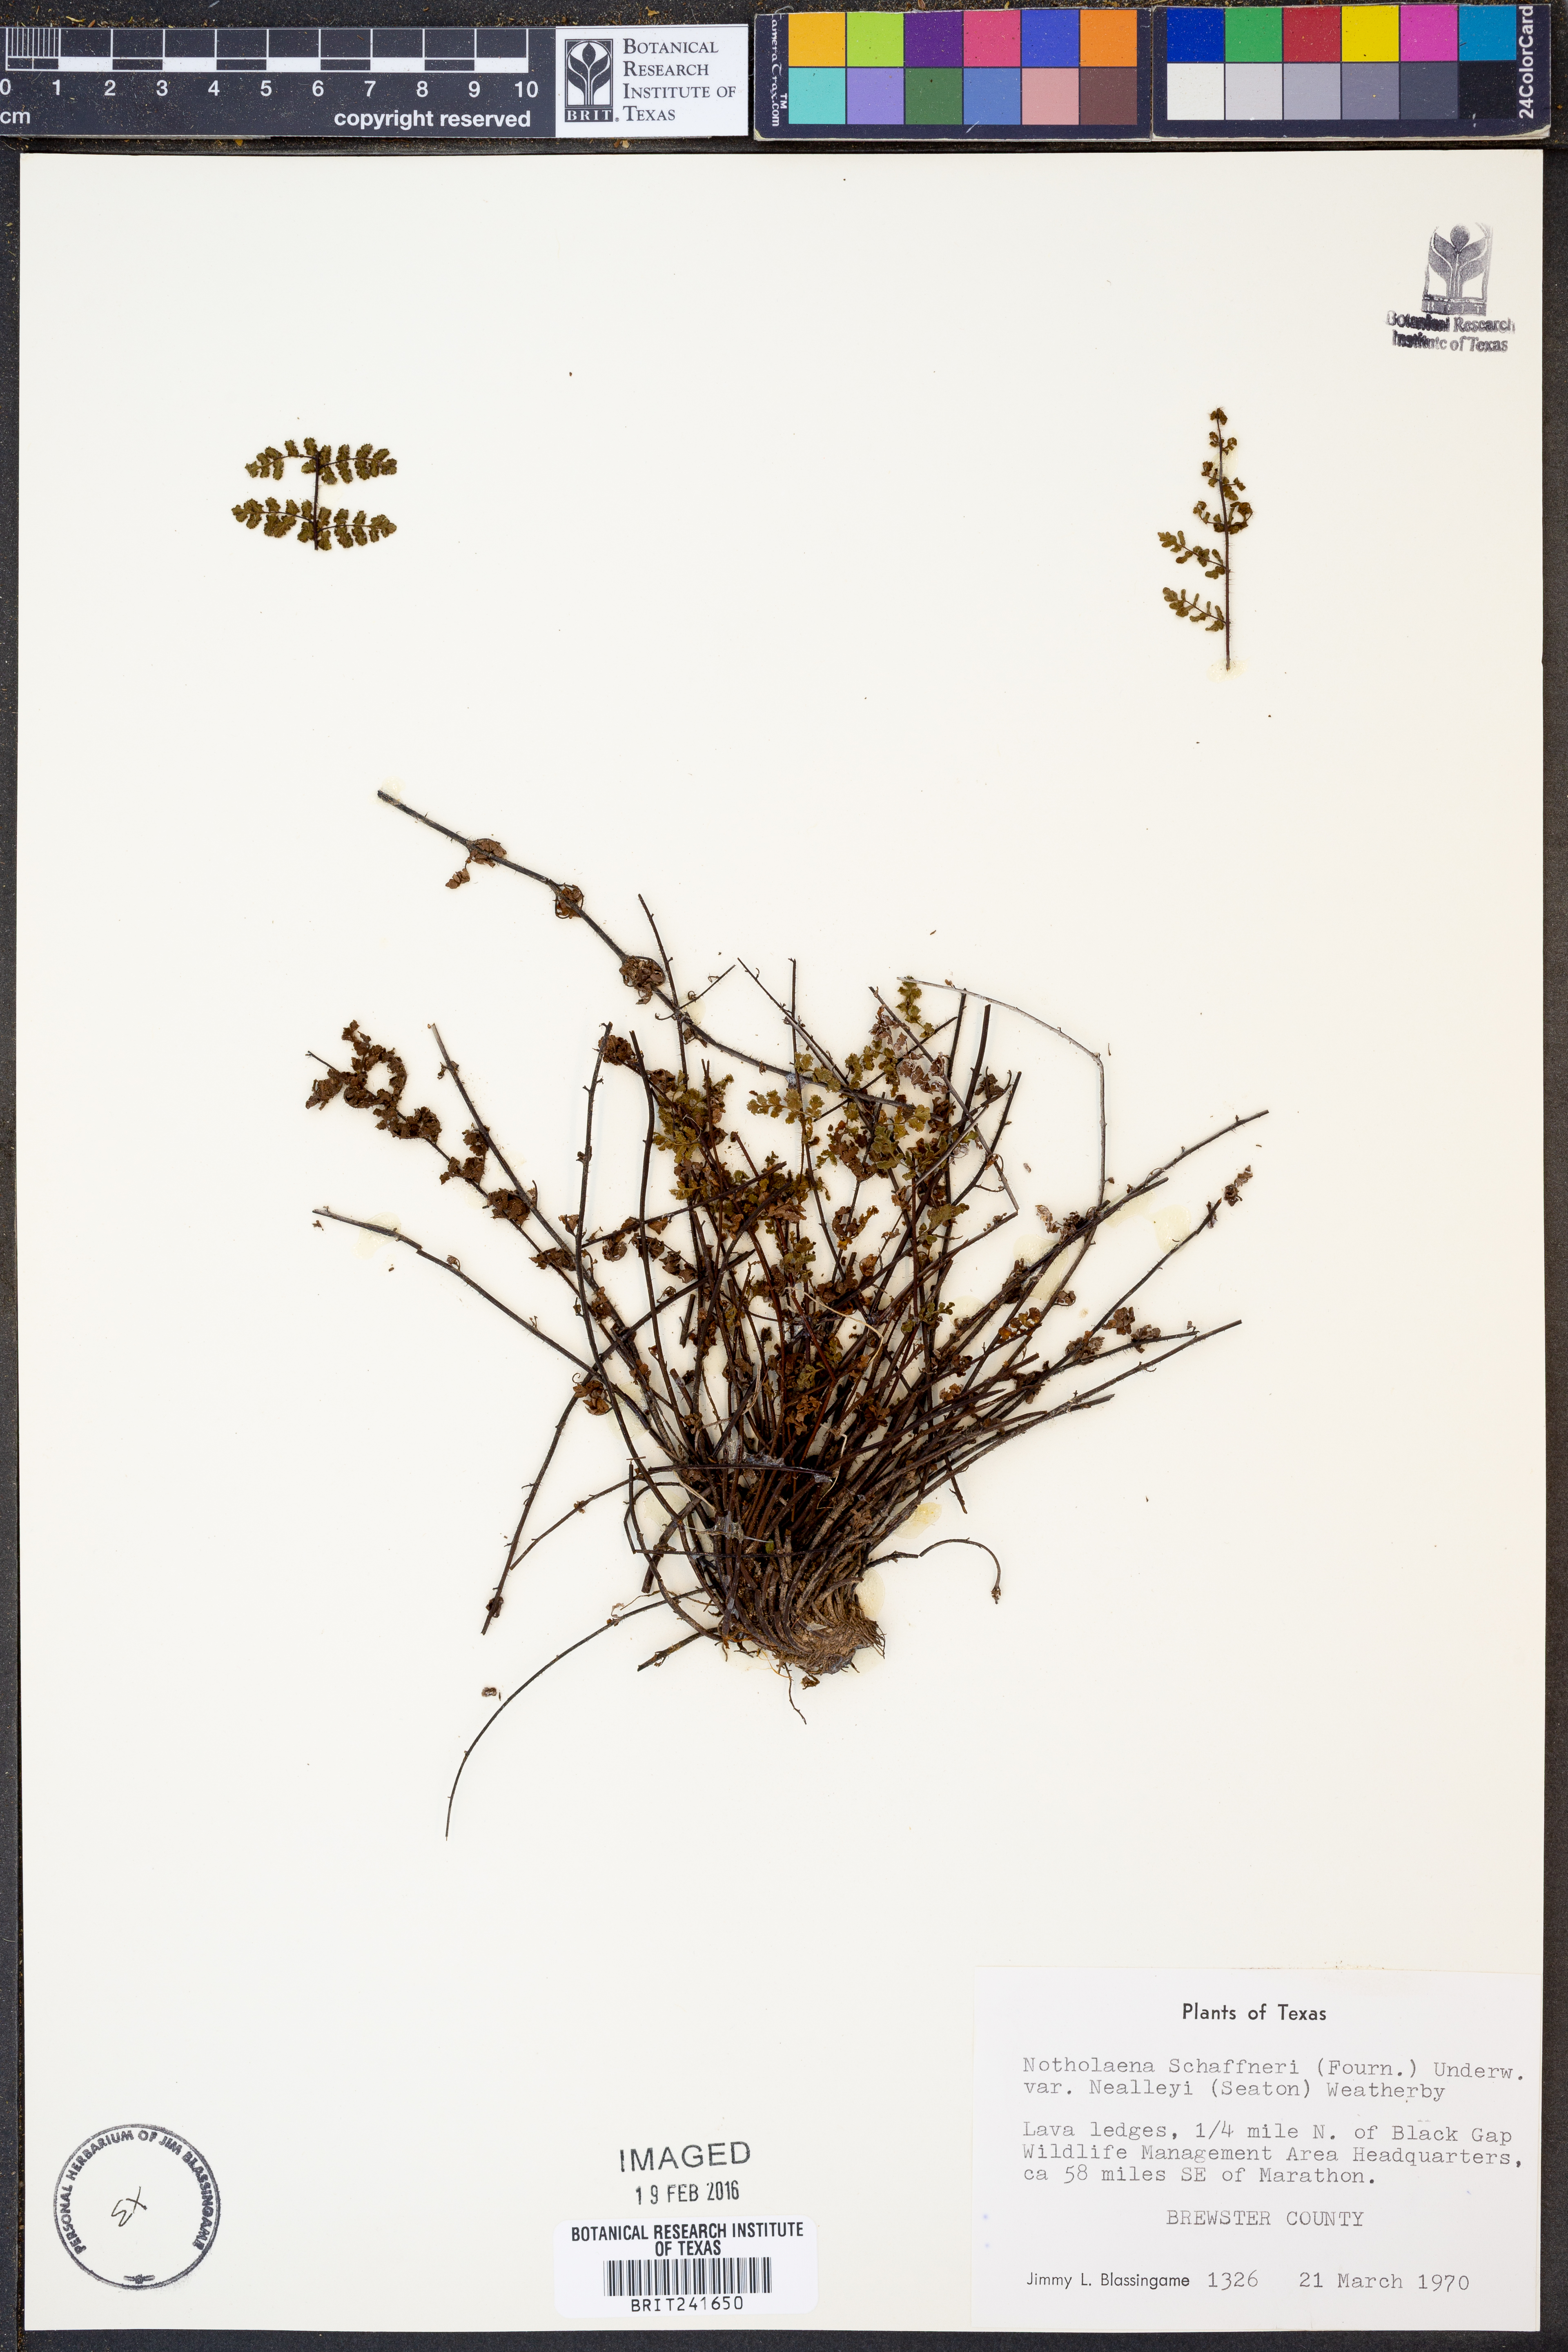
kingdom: Plantae
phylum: Tracheophyta
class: Polypodiopsida
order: Polypodiales
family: Pteridaceae
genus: Notholaena
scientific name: Notholaena schaffneri
